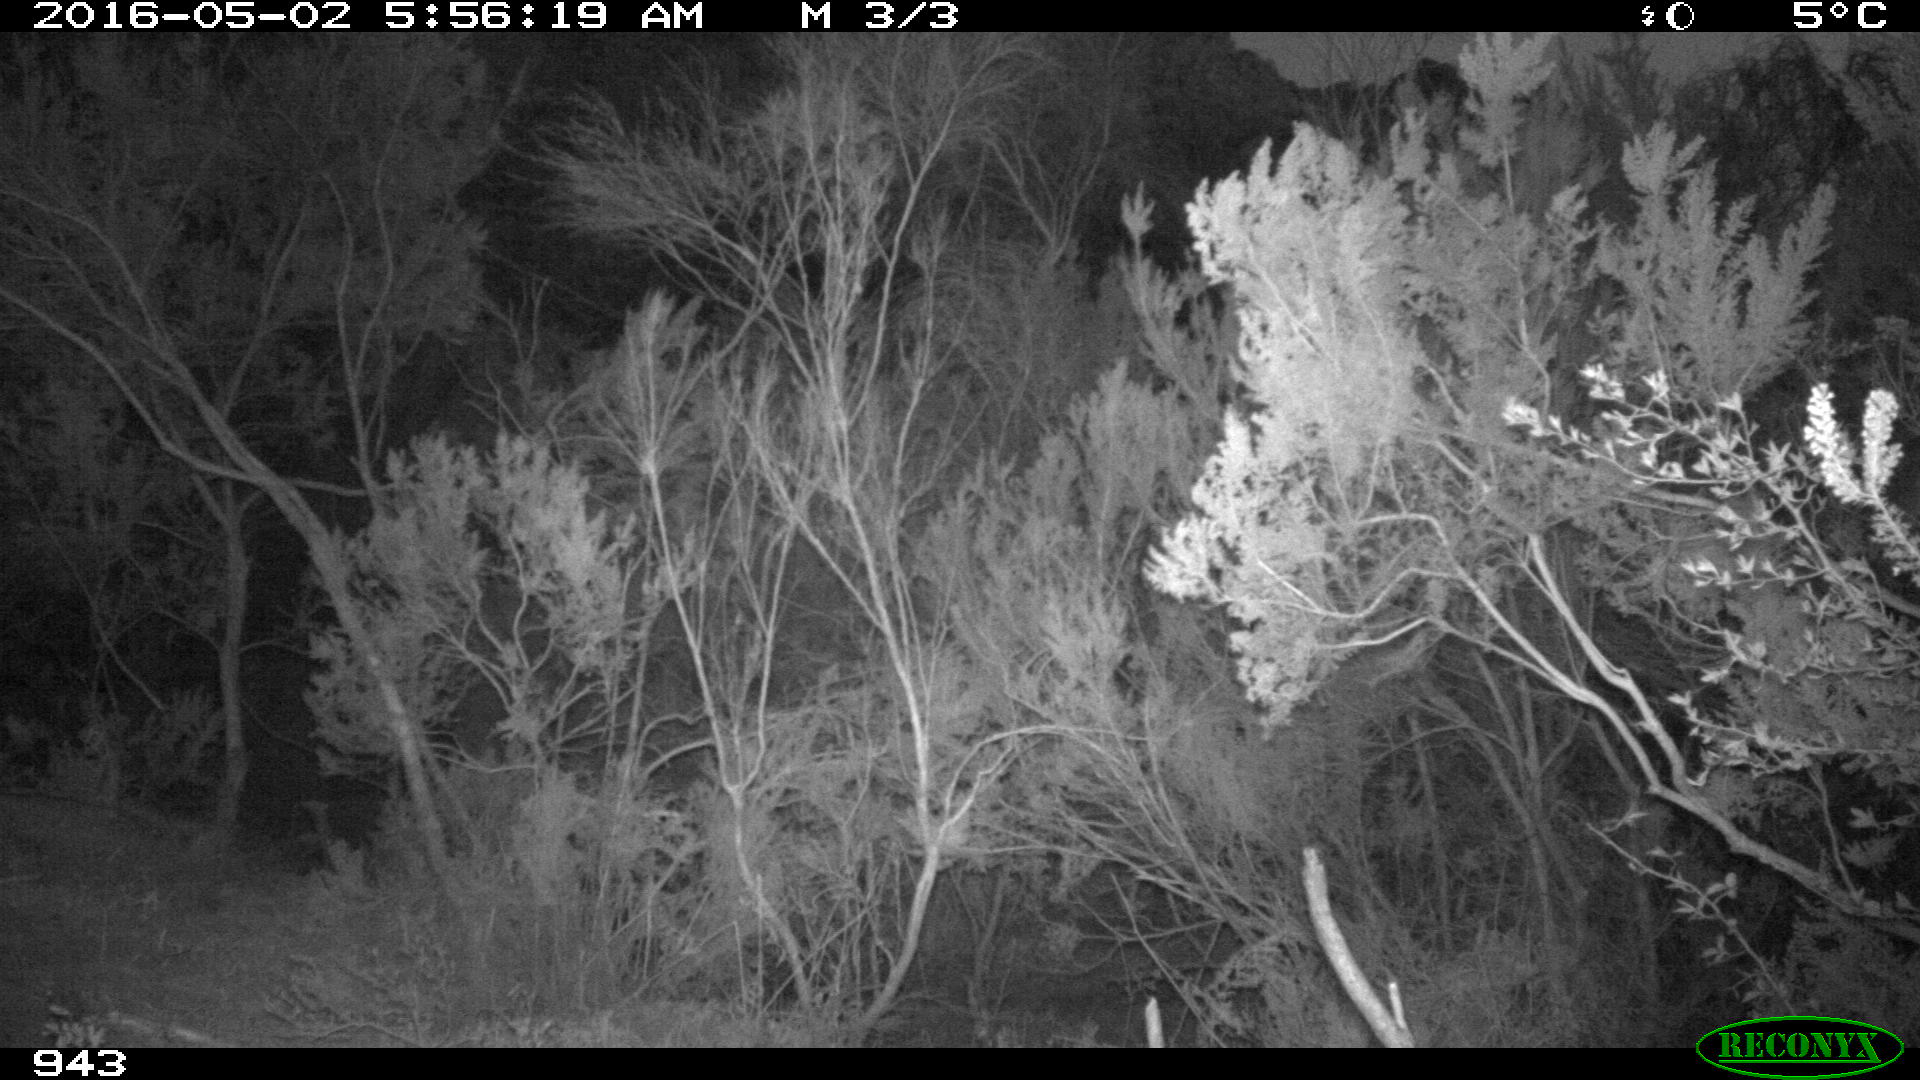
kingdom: Animalia
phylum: Chordata
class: Mammalia
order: Perissodactyla
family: Equidae
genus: Equus
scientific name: Equus caballus
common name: Horse
